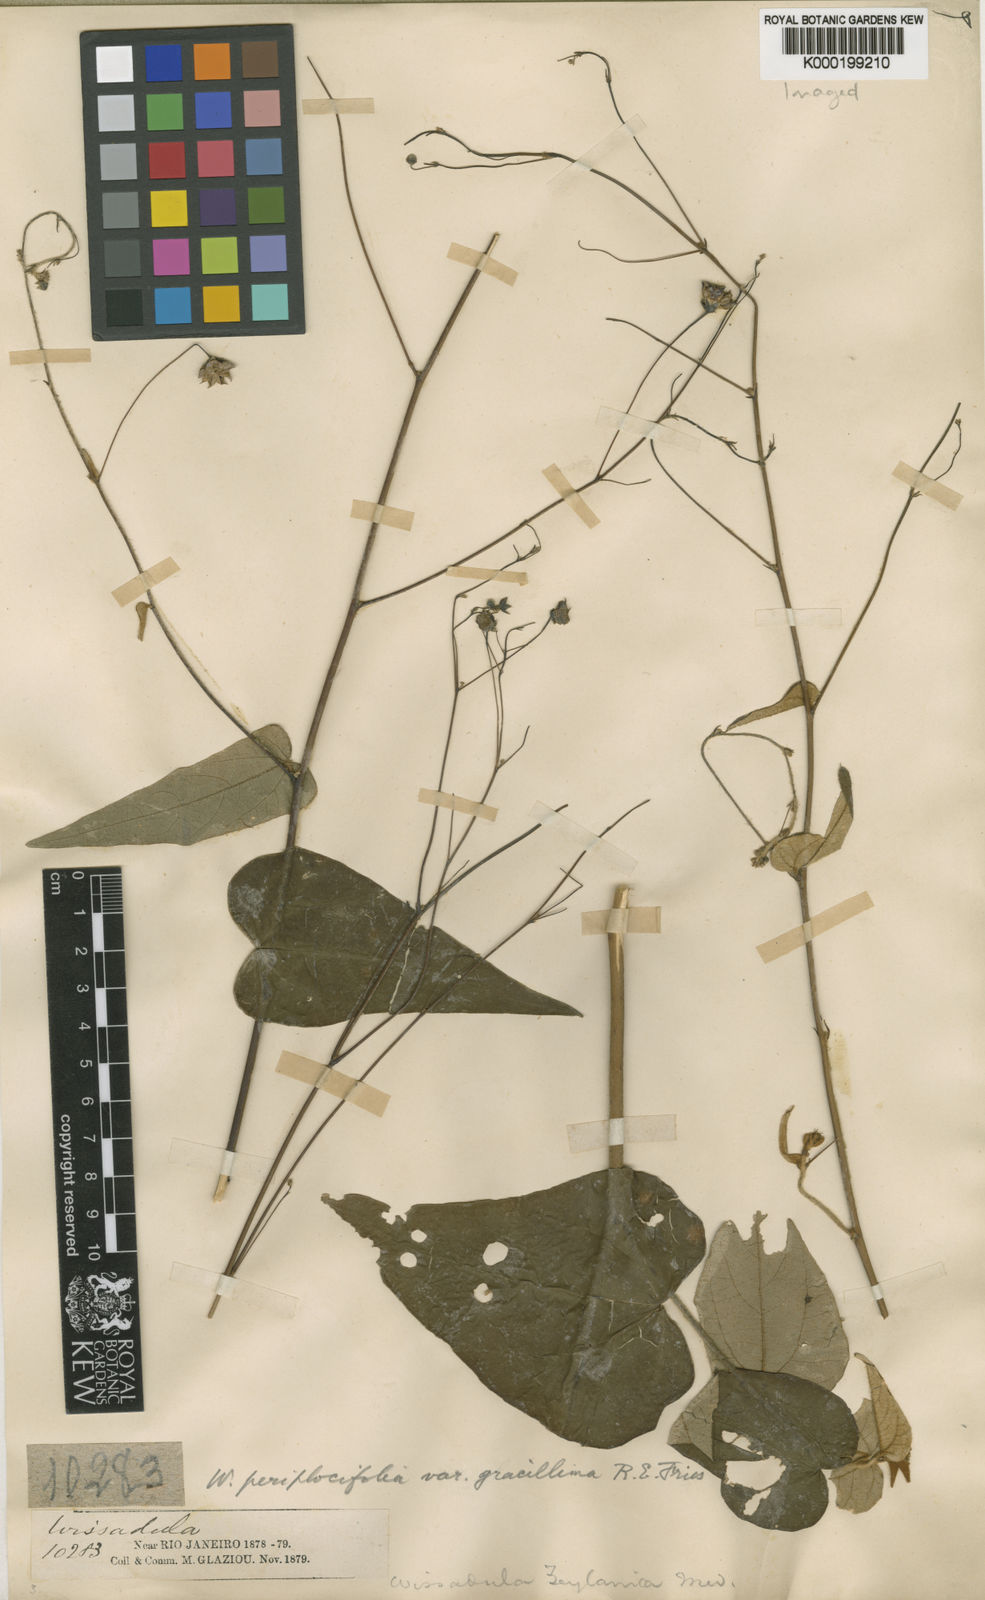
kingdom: Plantae
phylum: Tracheophyta
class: Magnoliopsida
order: Malvales
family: Malvaceae
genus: Wissadula
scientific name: Wissadula periplocifolia
